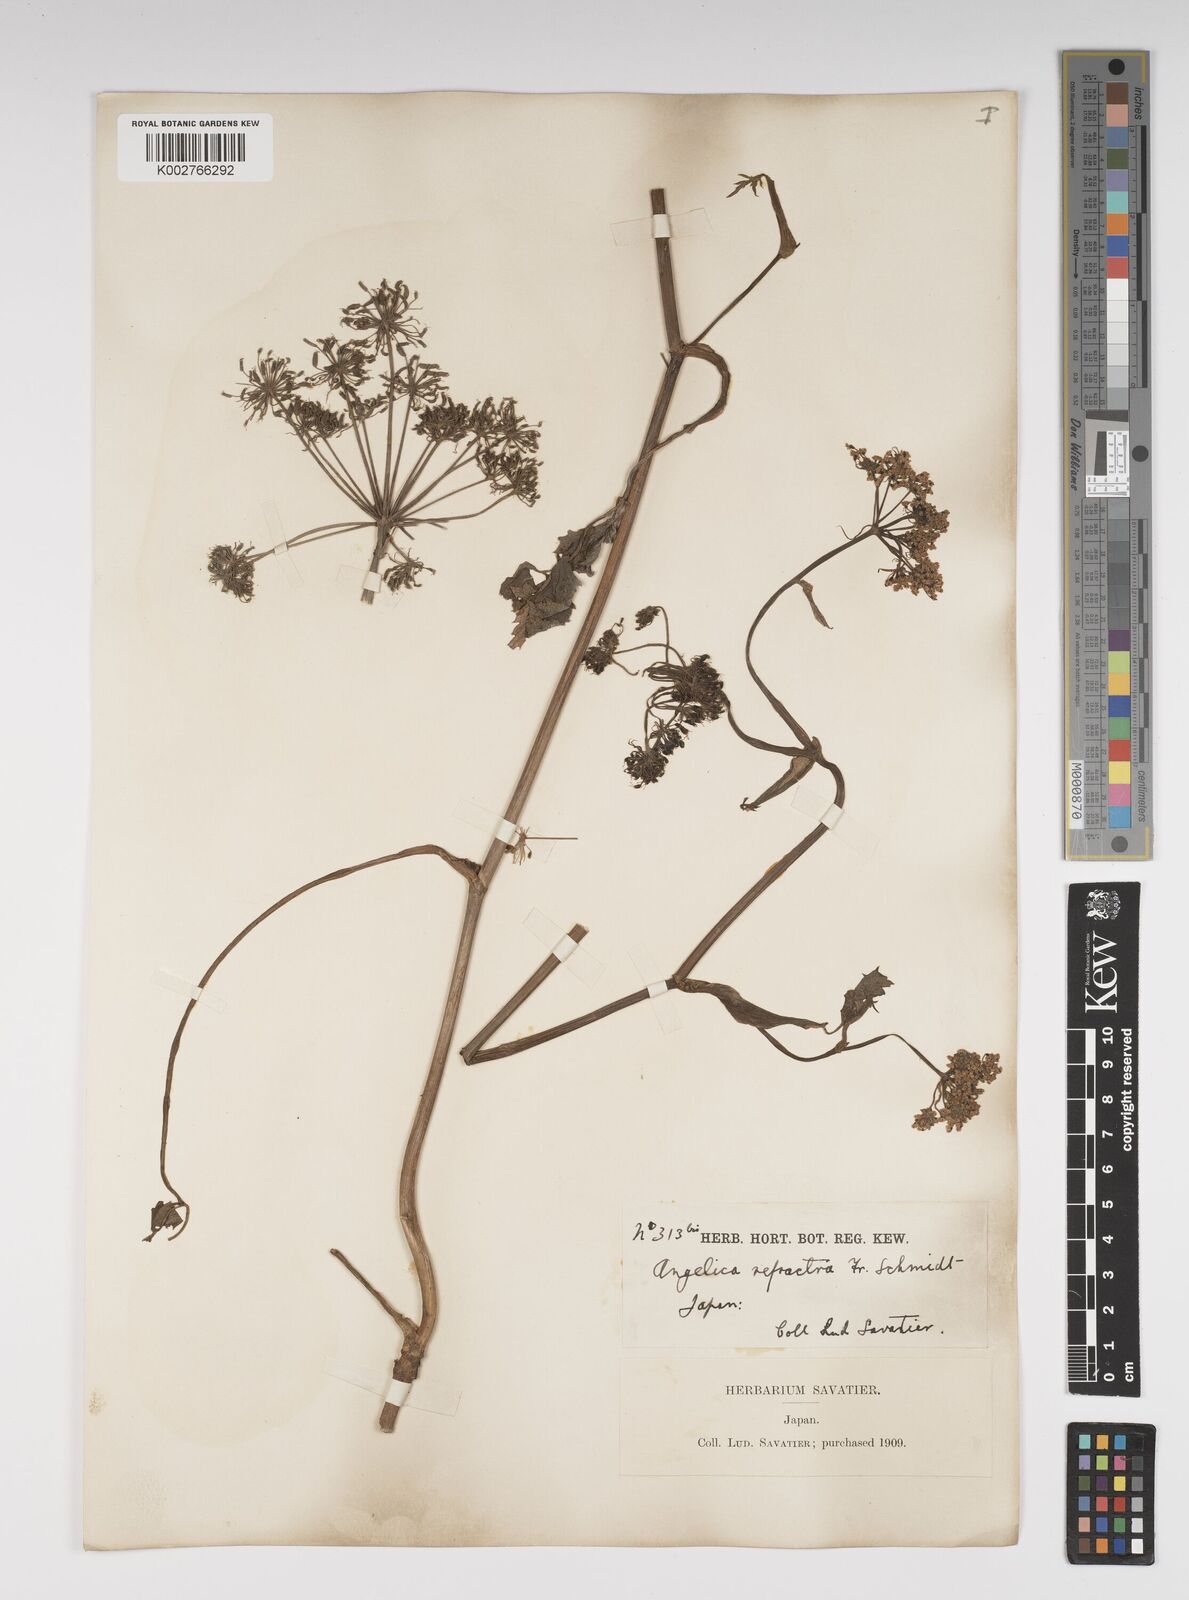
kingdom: Plantae
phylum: Tracheophyta
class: Magnoliopsida
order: Apiales
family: Apiaceae
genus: Angelica
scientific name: Angelica genuflexa
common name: Kneeling angelica
